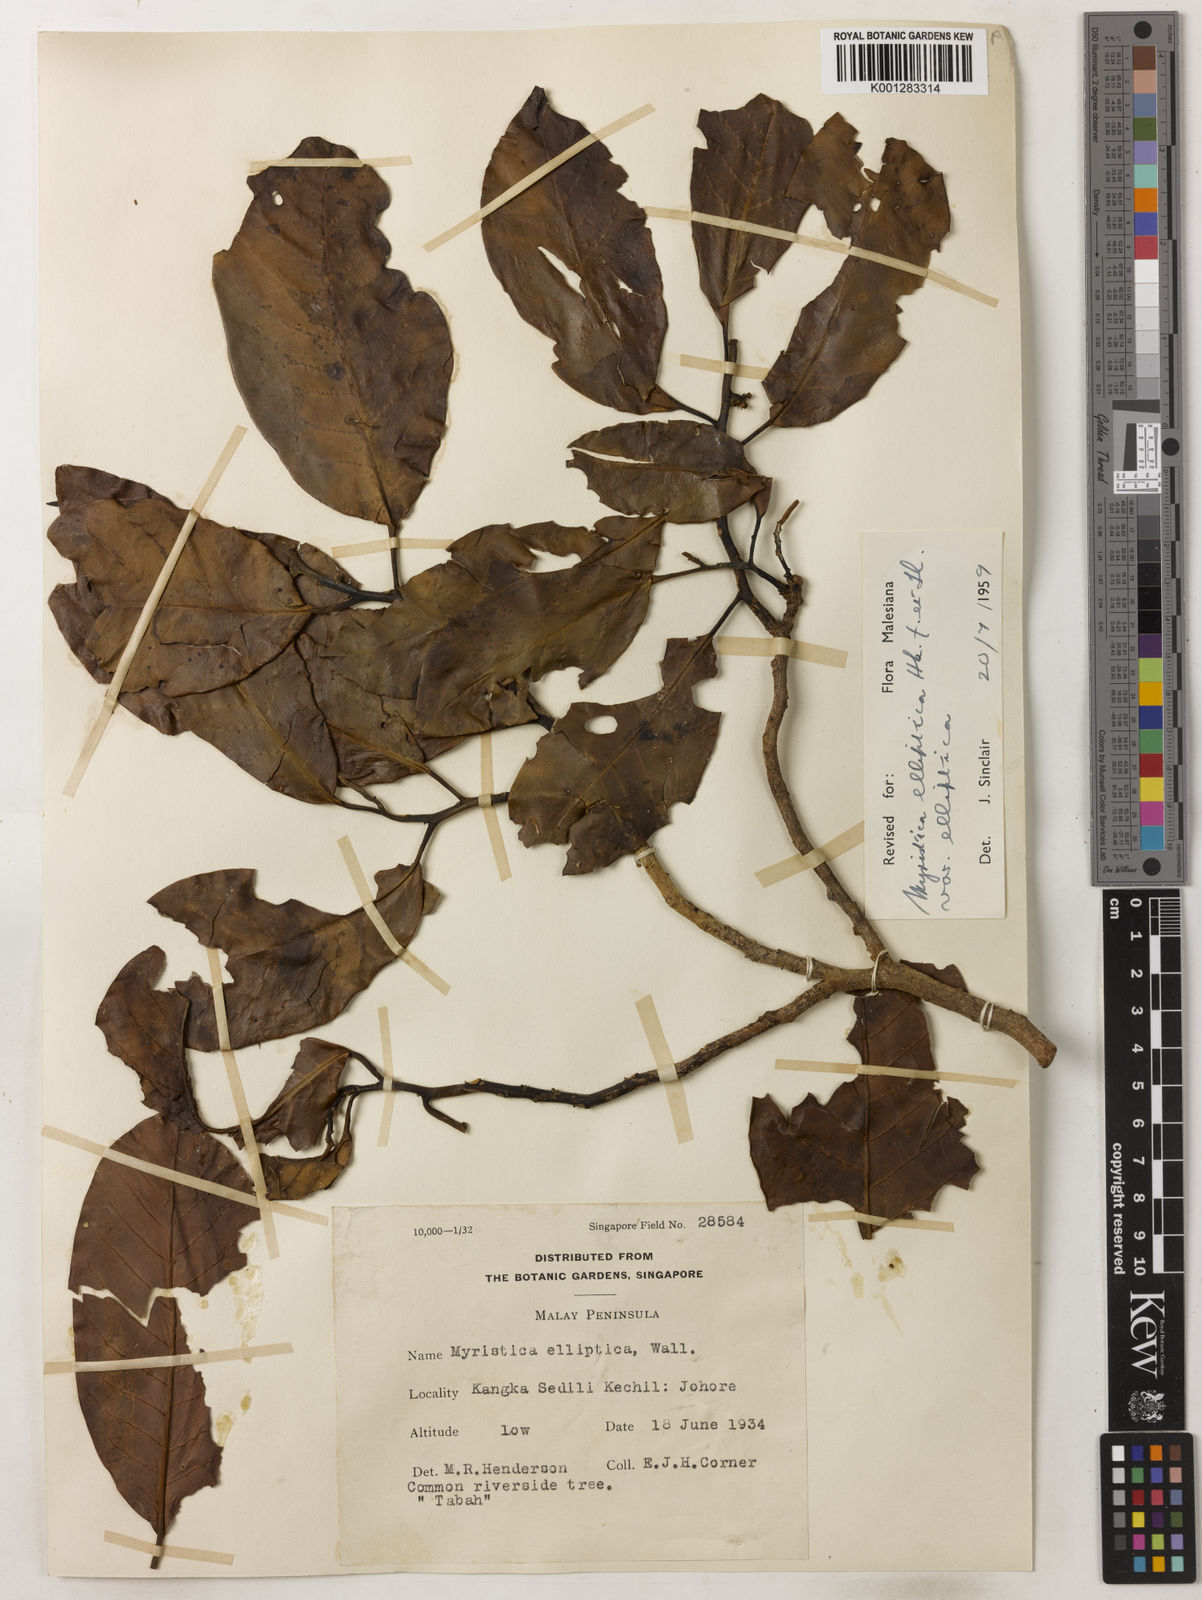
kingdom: Plantae
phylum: Tracheophyta
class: Magnoliopsida
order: Magnoliales
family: Myristicaceae
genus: Myristica
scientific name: Myristica elliptica
